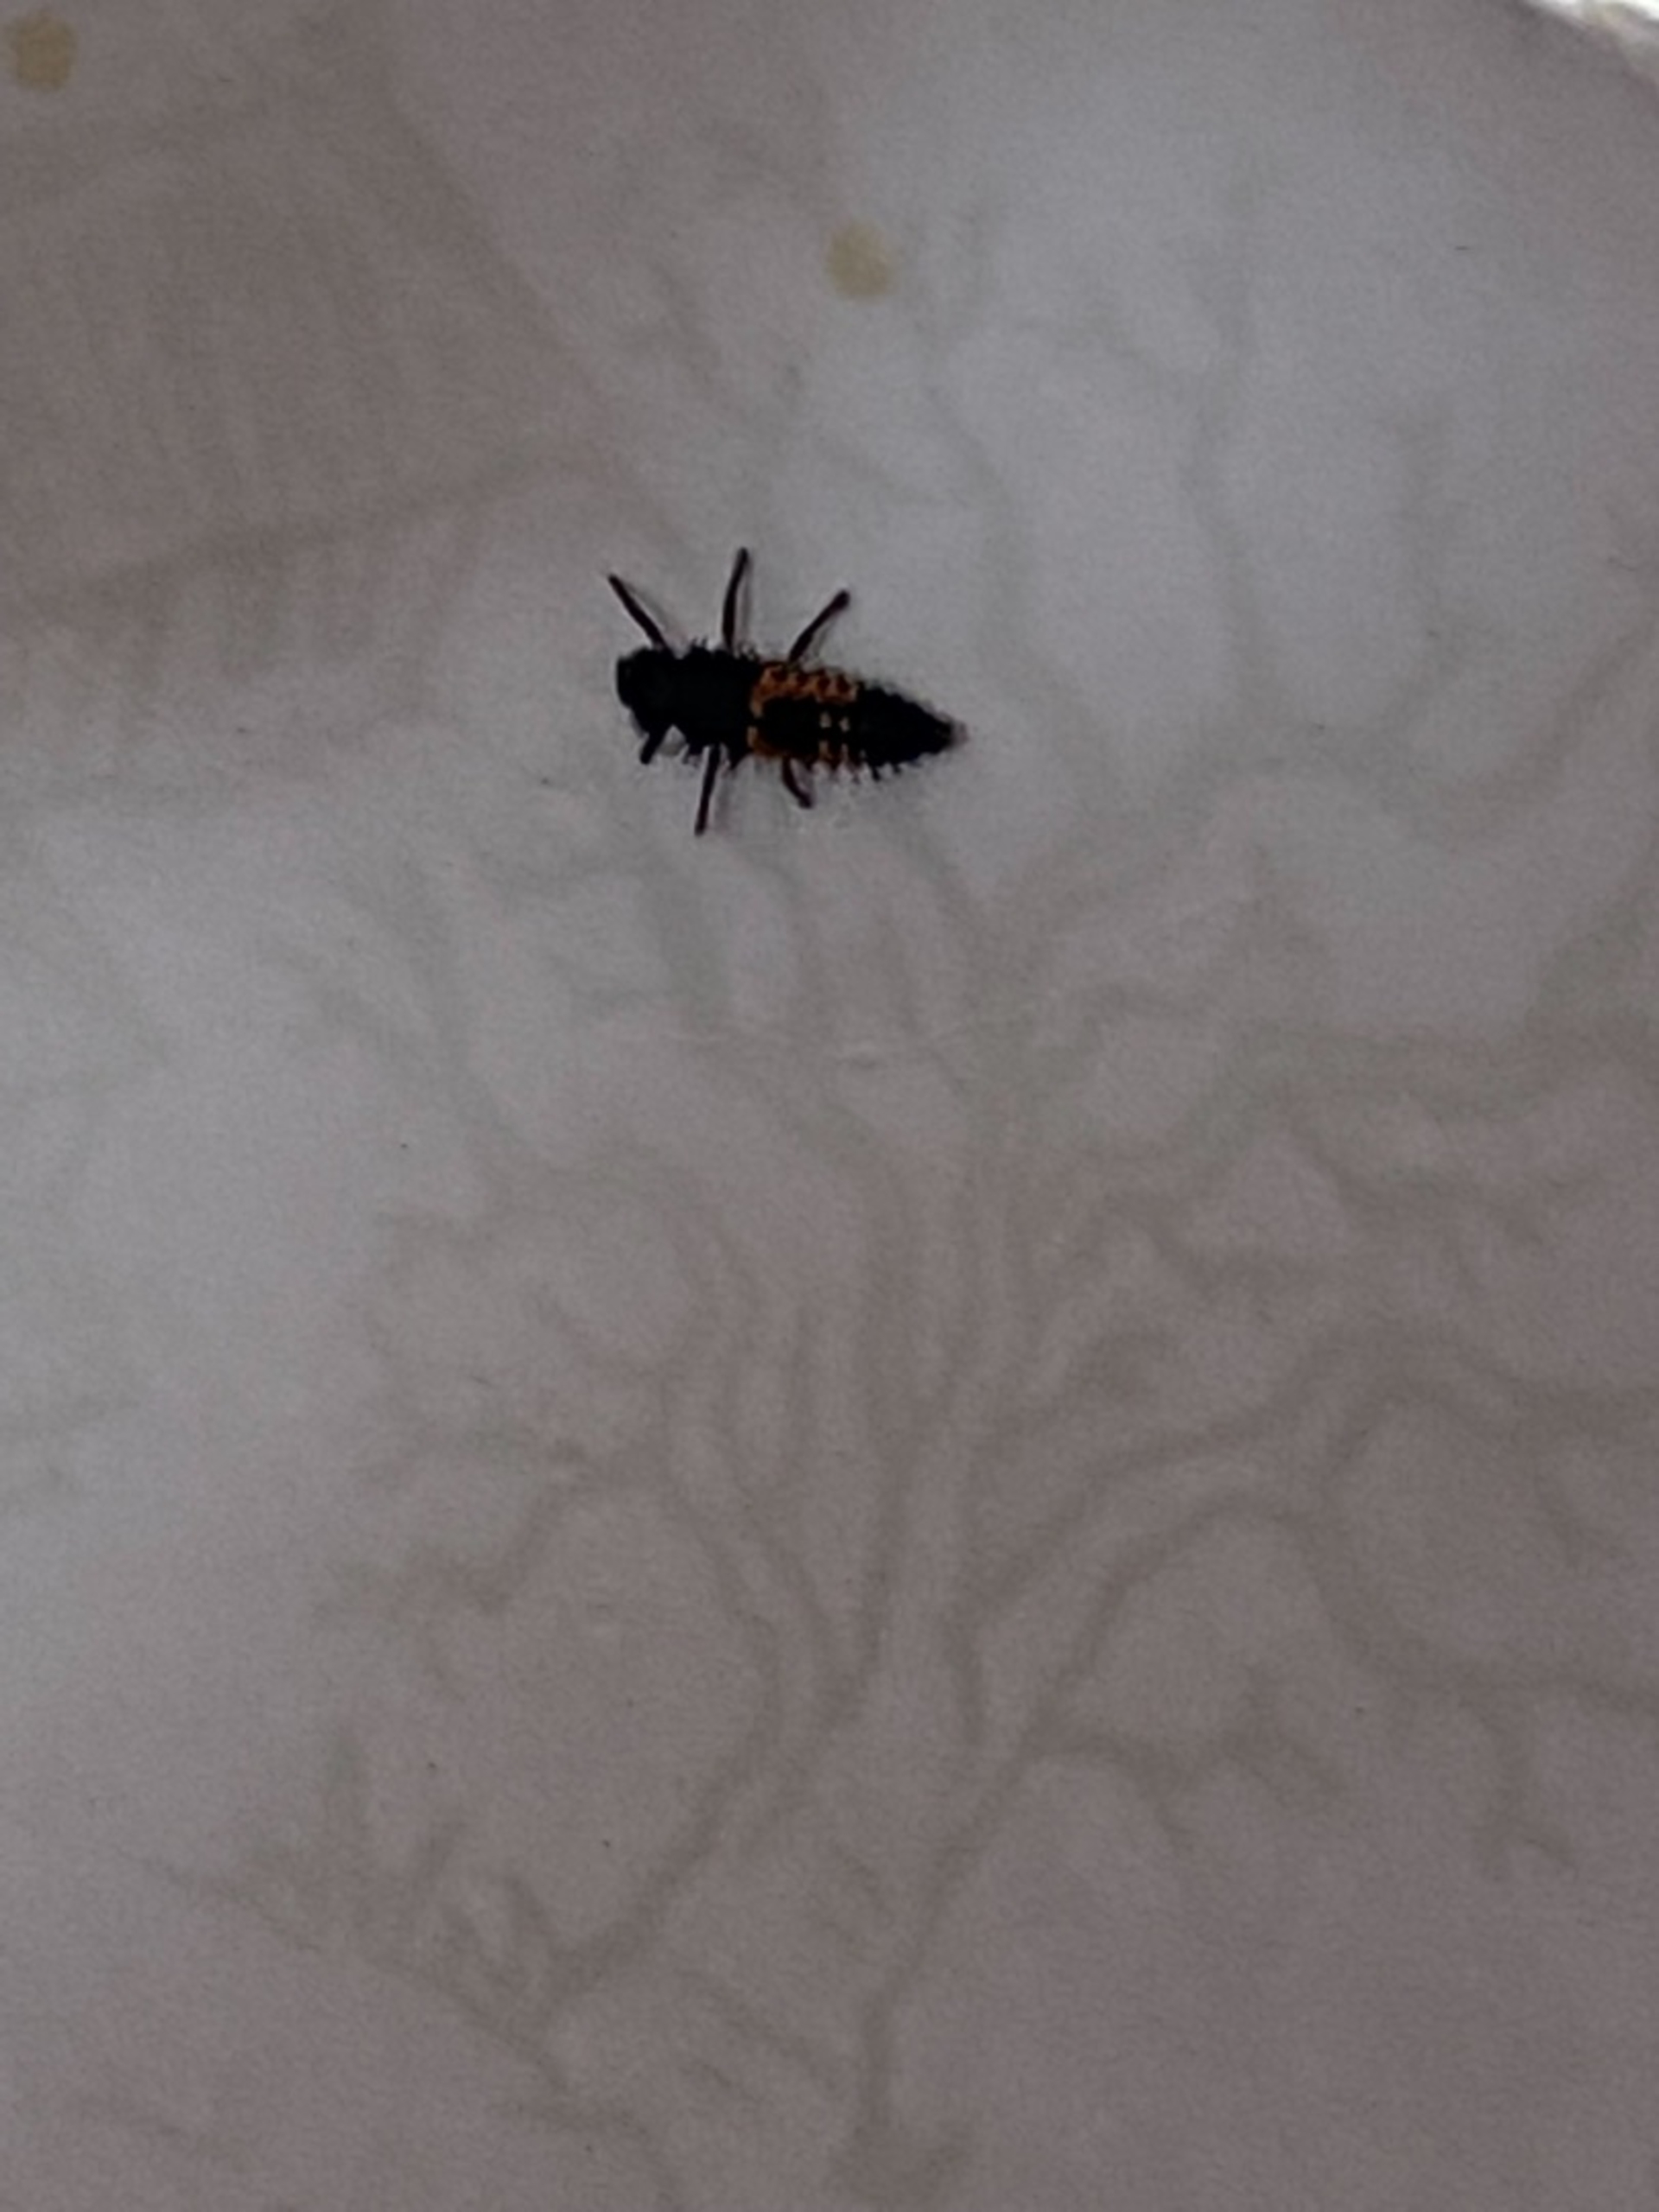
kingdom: Animalia
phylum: Arthropoda
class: Insecta
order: Coleoptera
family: Coccinellidae
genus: Harmonia
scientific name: Harmonia axyridis
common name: Harlekinmariehøne
